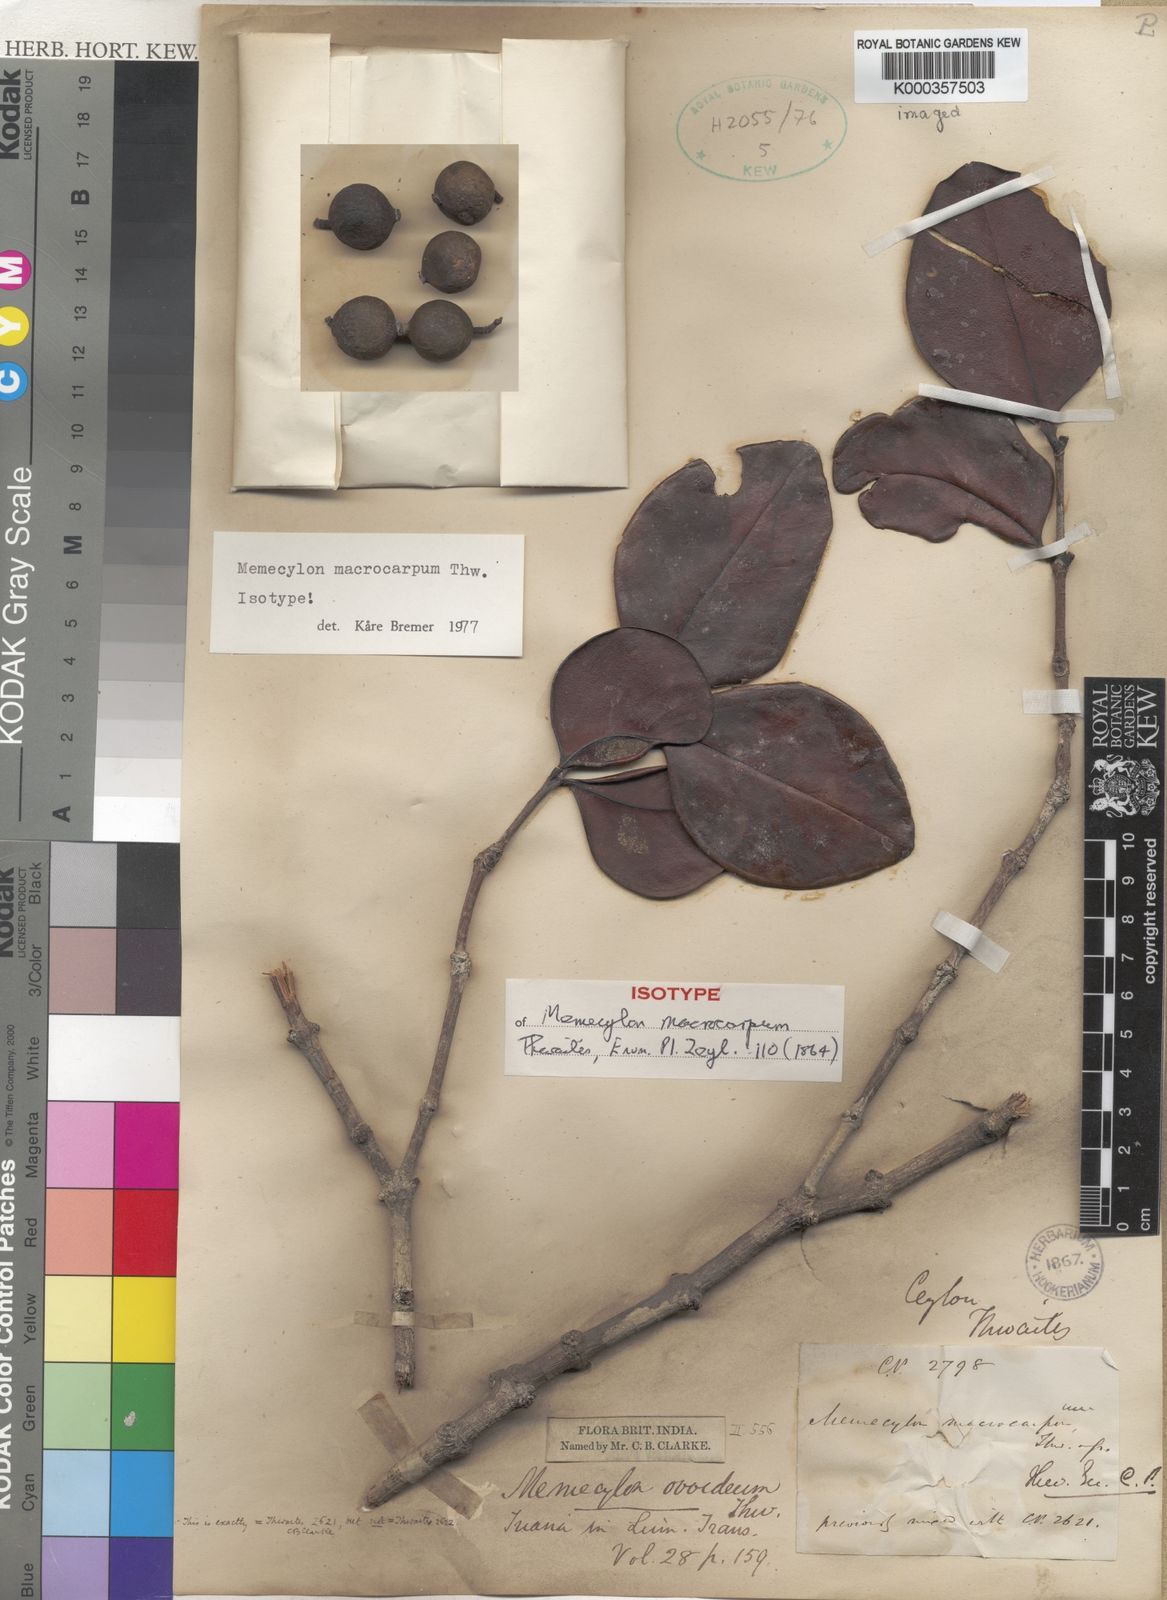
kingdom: Plantae
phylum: Tracheophyta
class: Magnoliopsida
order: Myrtales
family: Melastomataceae
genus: Memecylon
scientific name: Memecylon macrocarpum
